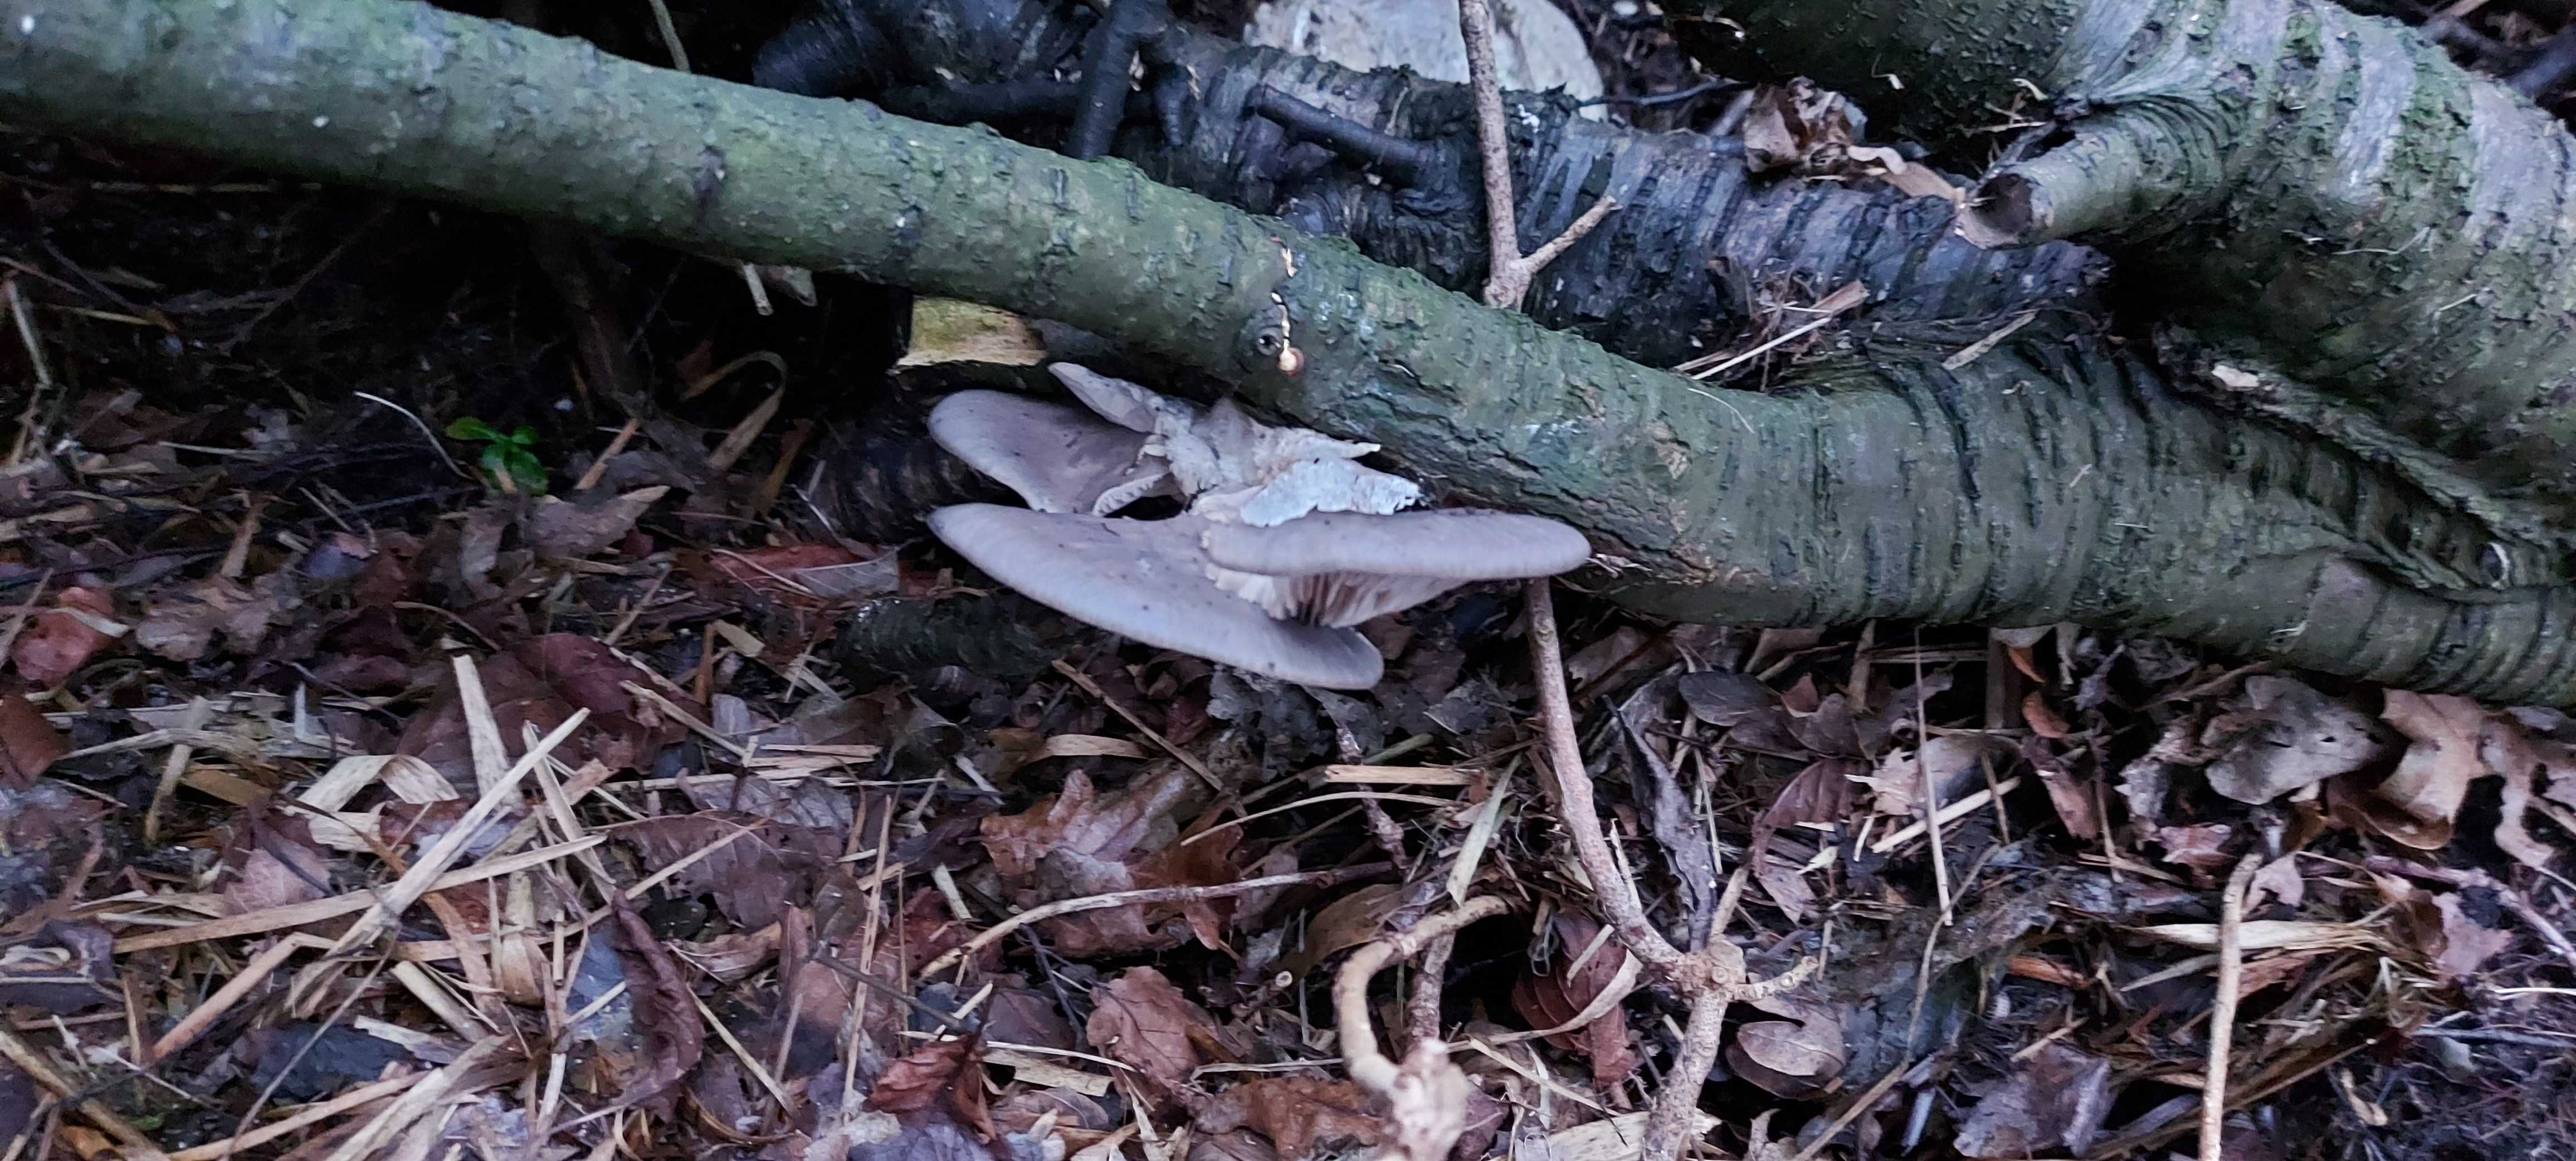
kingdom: Fungi
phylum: Basidiomycota
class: Agaricomycetes
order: Agaricales
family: Pleurotaceae
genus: Pleurotus
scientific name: Pleurotus ostreatus
